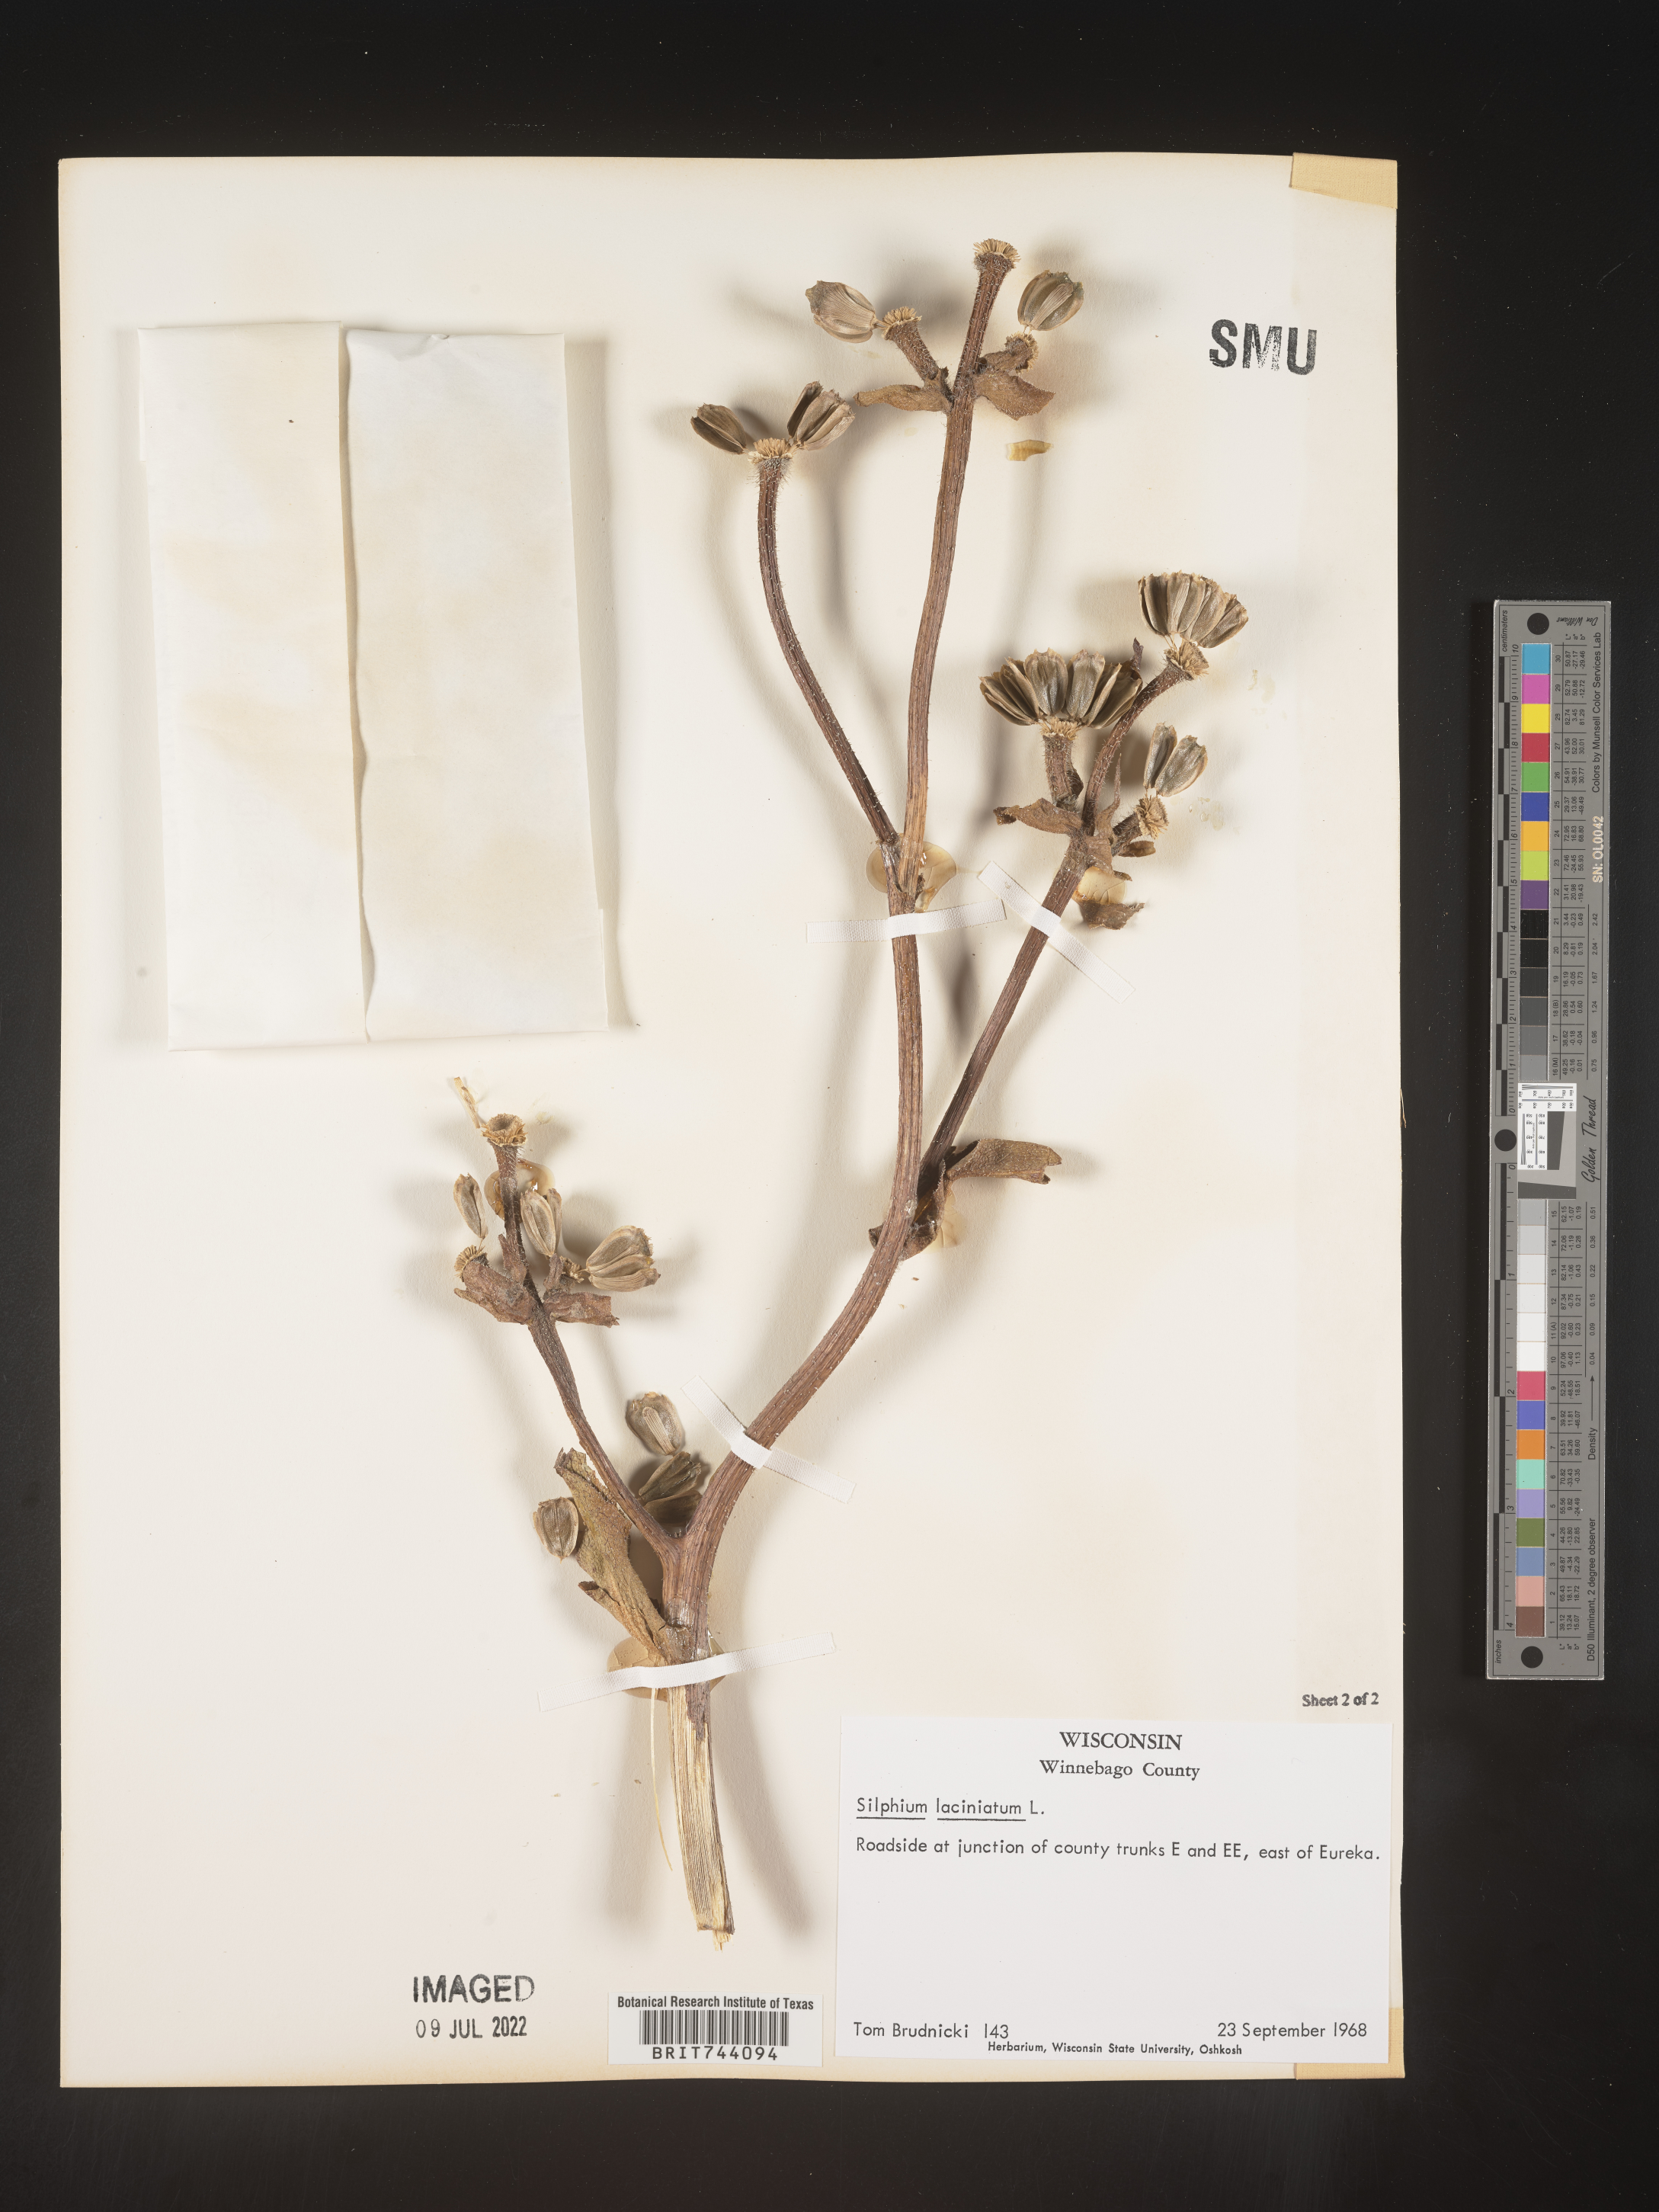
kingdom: Plantae
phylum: Tracheophyta
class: Magnoliopsida
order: Asterales
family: Asteraceae
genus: Silphium
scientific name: Silphium laciniatum
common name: Polarplant
